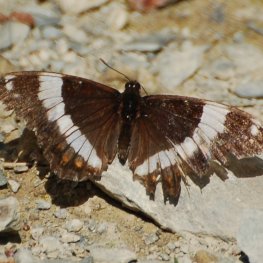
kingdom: Animalia
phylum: Arthropoda
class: Insecta
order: Lepidoptera
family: Nymphalidae
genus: Limenitis
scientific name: Limenitis arthemis
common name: Red-spotted Admiral
